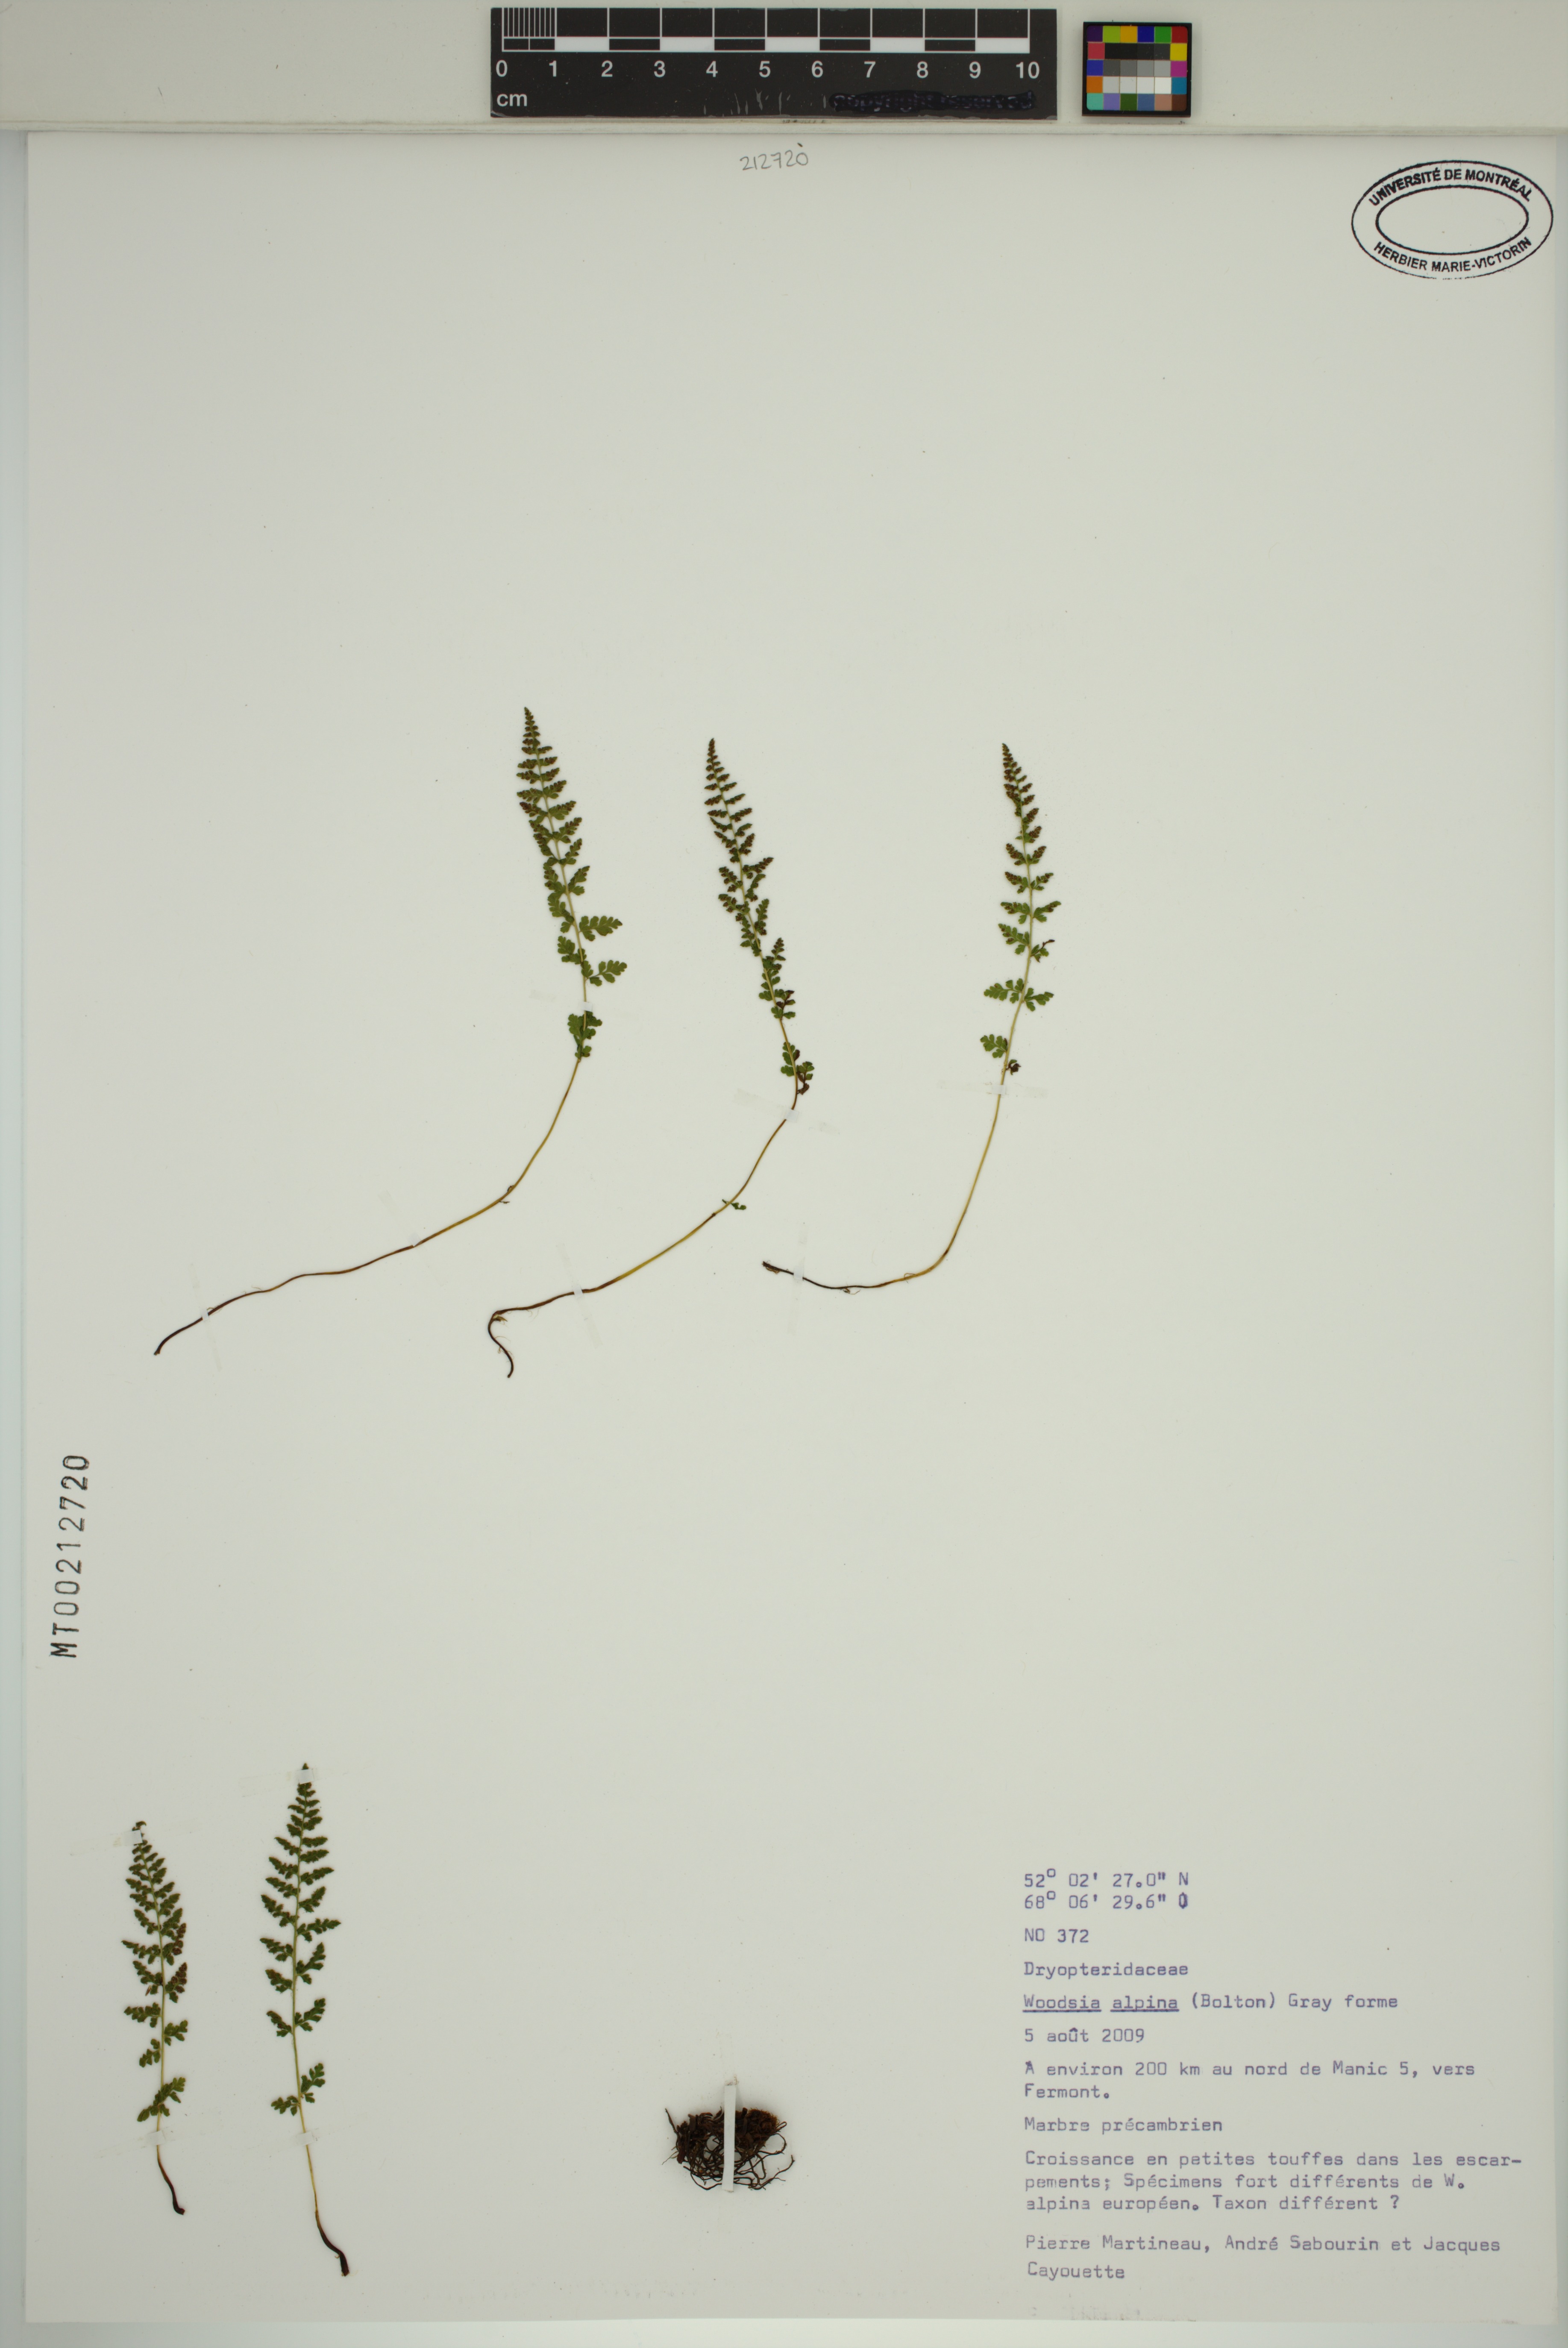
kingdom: Plantae
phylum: Tracheophyta
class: Polypodiopsida
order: Polypodiales
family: Woodsiaceae
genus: Woodsia
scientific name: Woodsia alpina
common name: Alpine woodsia
